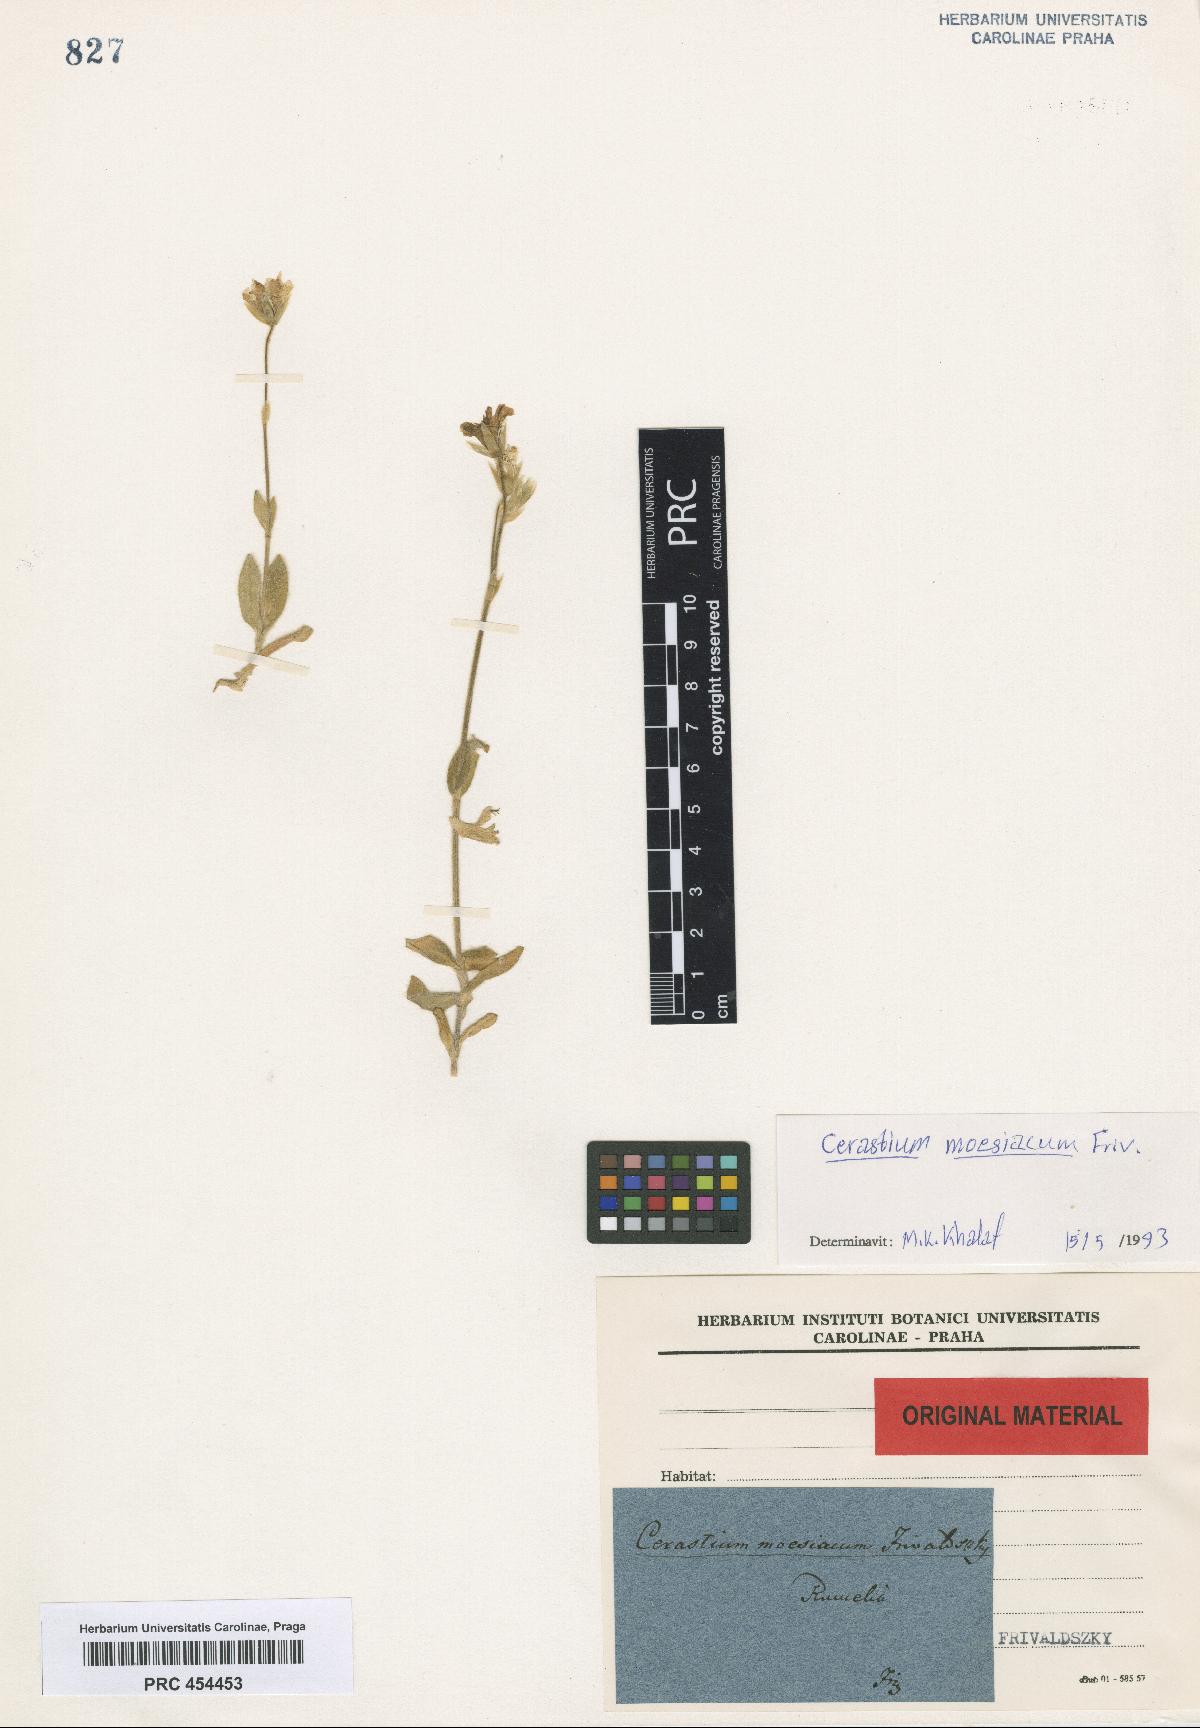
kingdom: Plantae
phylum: Tracheophyta
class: Magnoliopsida
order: Caryophyllales
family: Caryophyllaceae
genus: Cerastium
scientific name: Cerastium moesiacum
